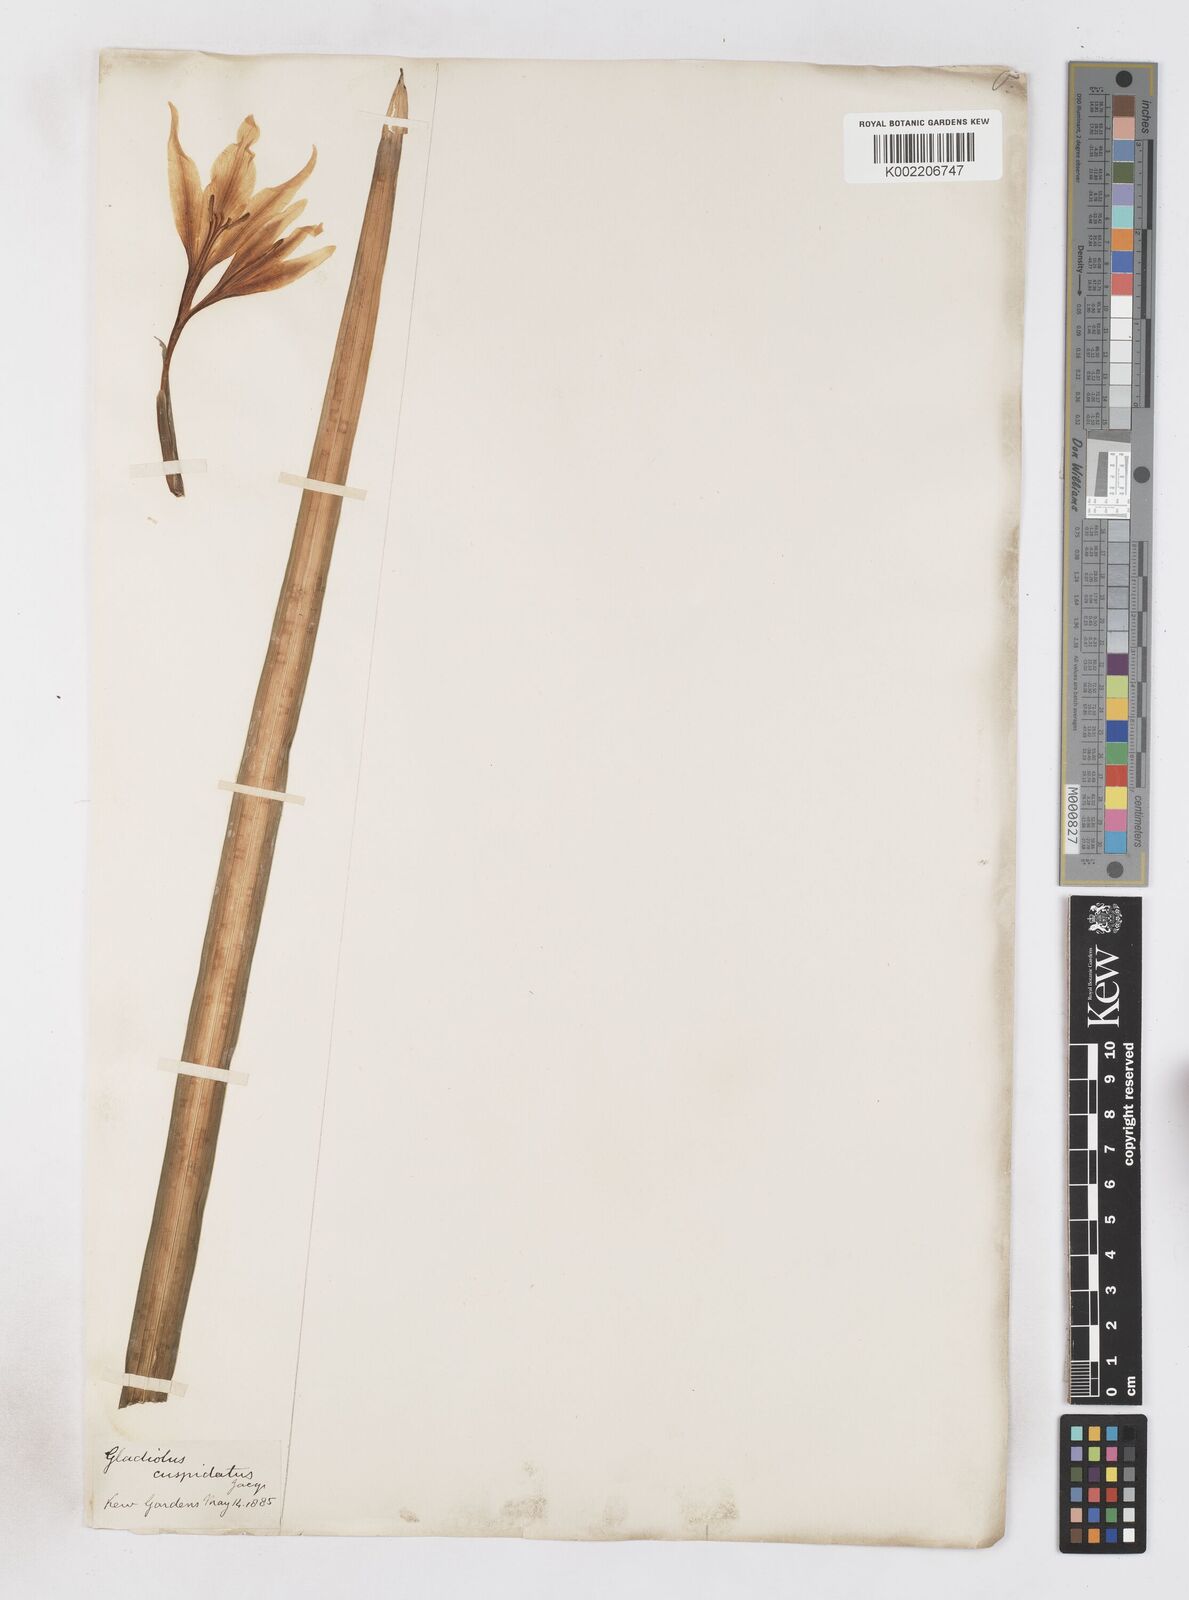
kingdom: Plantae
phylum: Tracheophyta
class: Liliopsida
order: Asparagales
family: Iridaceae
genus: Gladiolus
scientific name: Gladiolus undulatus
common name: Large painted-lady
